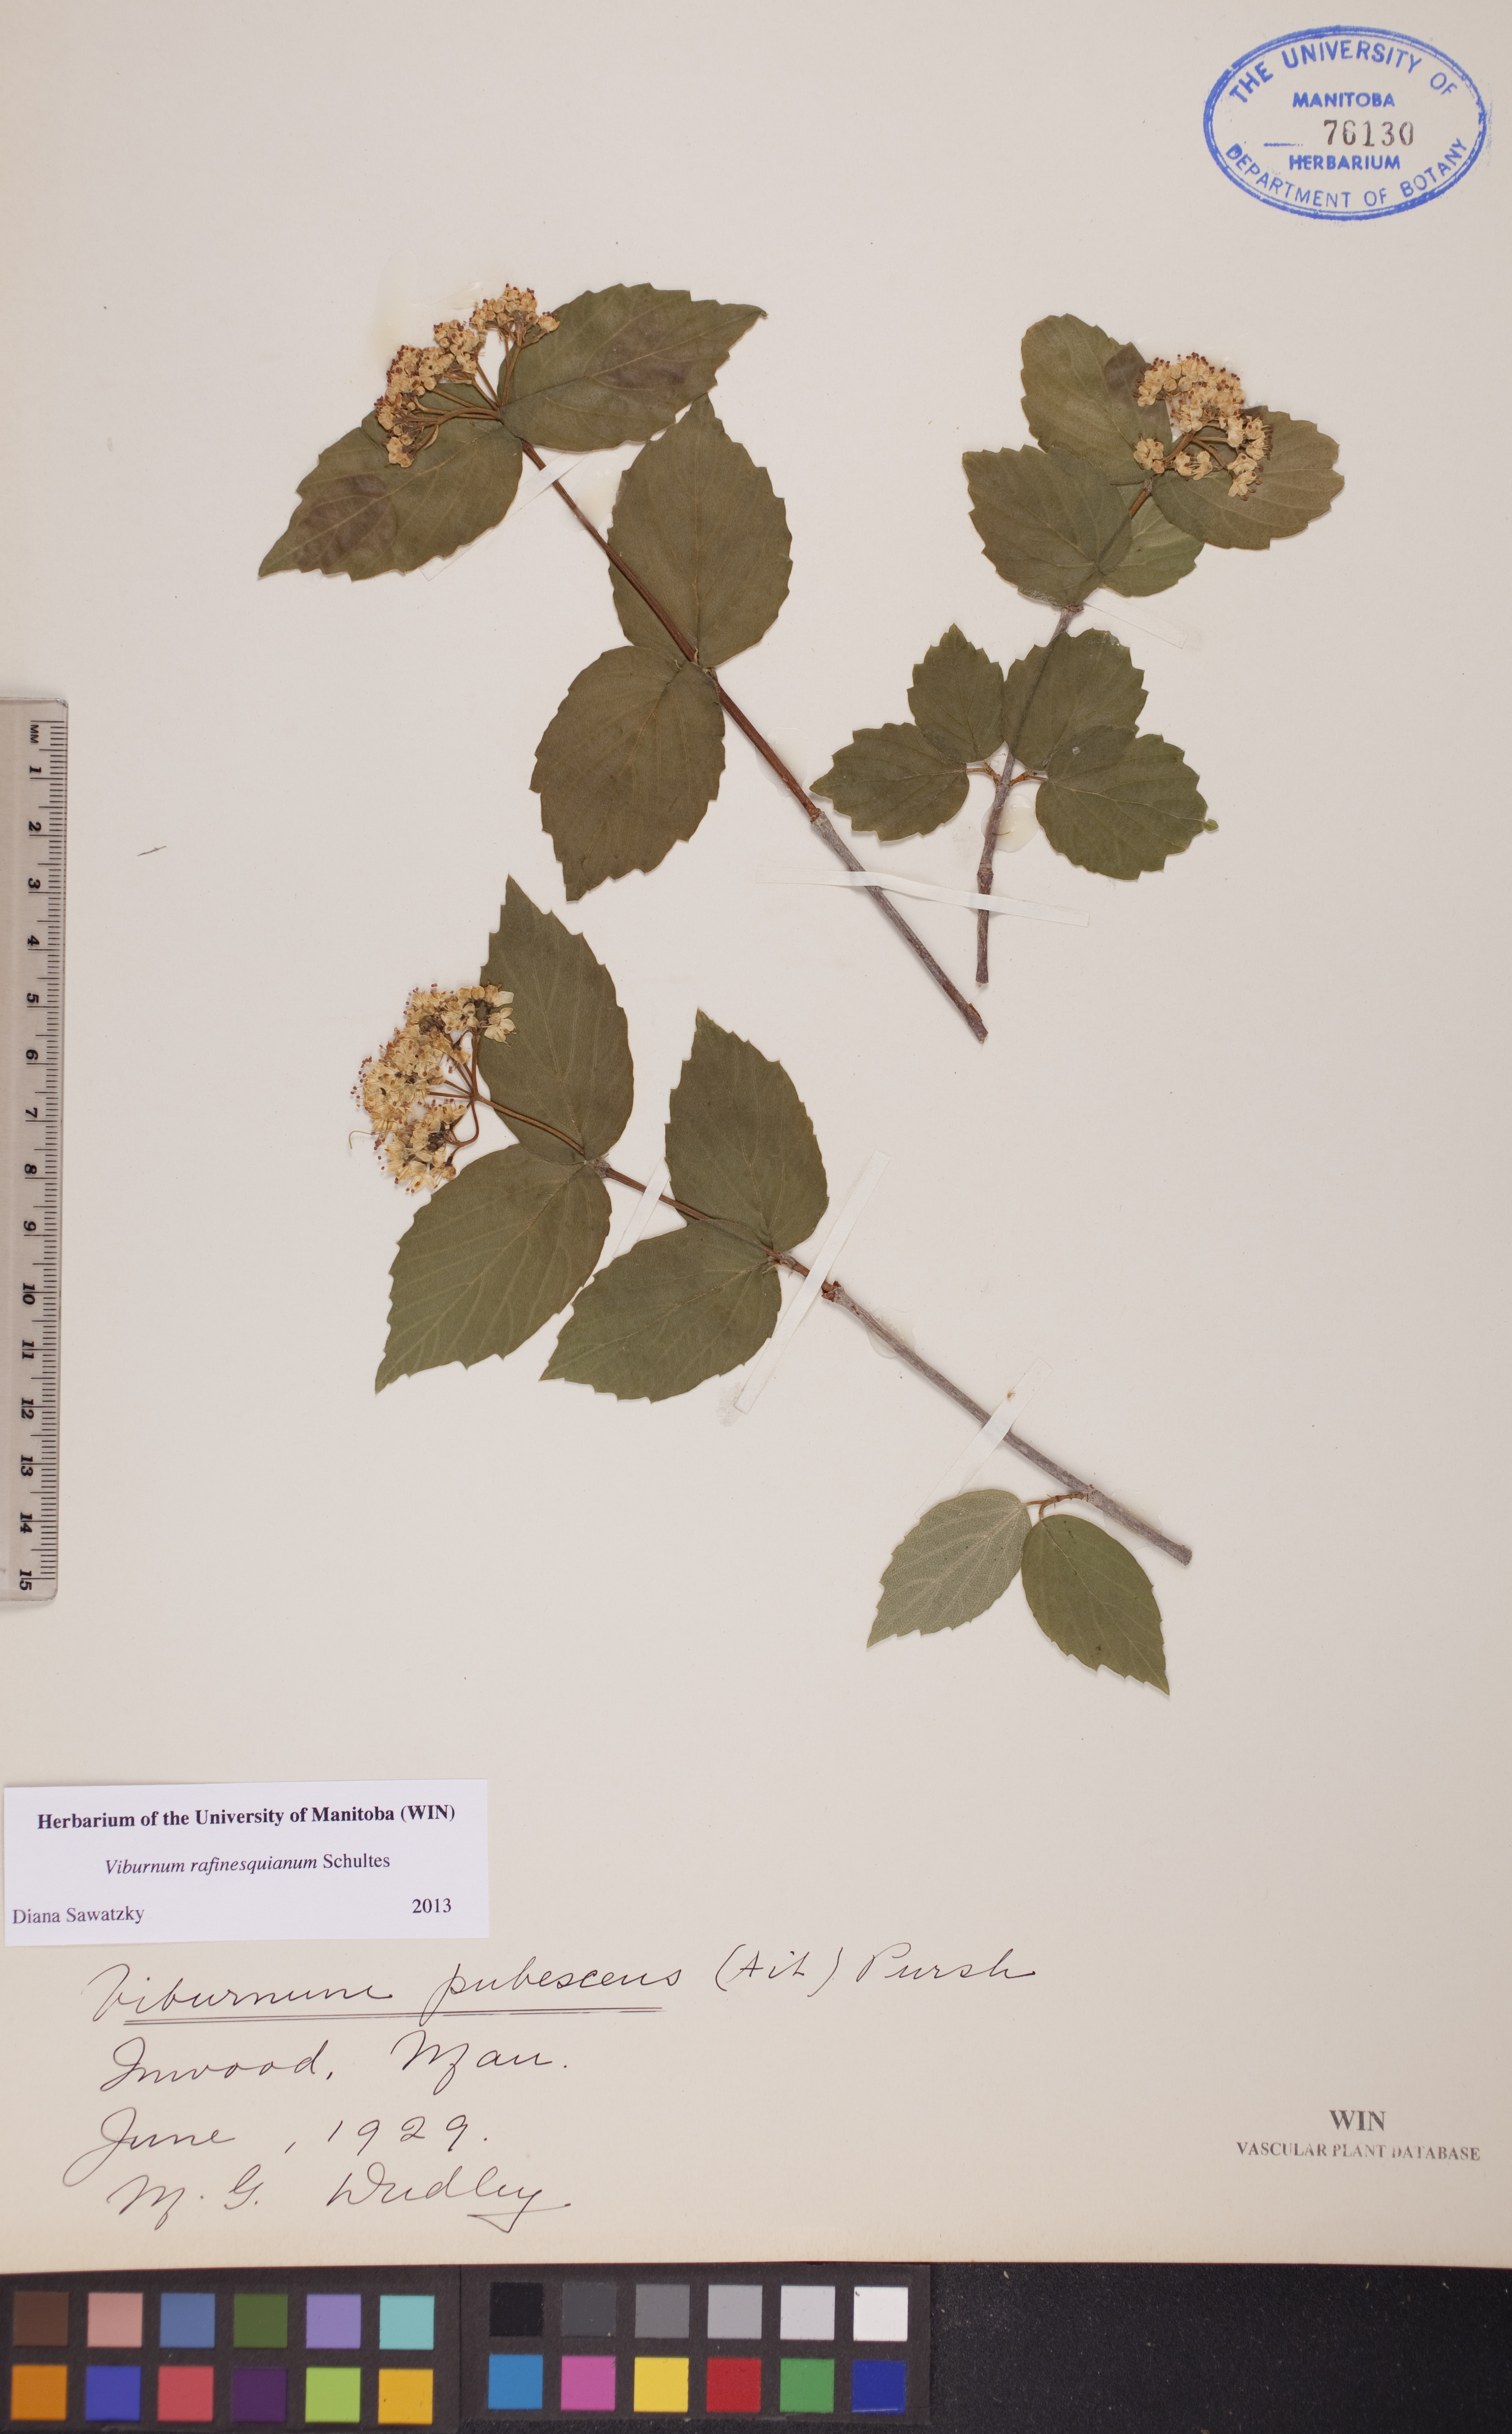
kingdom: Plantae
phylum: Tracheophyta
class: Magnoliopsida
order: Dipsacales
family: Viburnaceae
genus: Viburnum
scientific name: Viburnum rafinesquianum
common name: Downy arrow-wood
